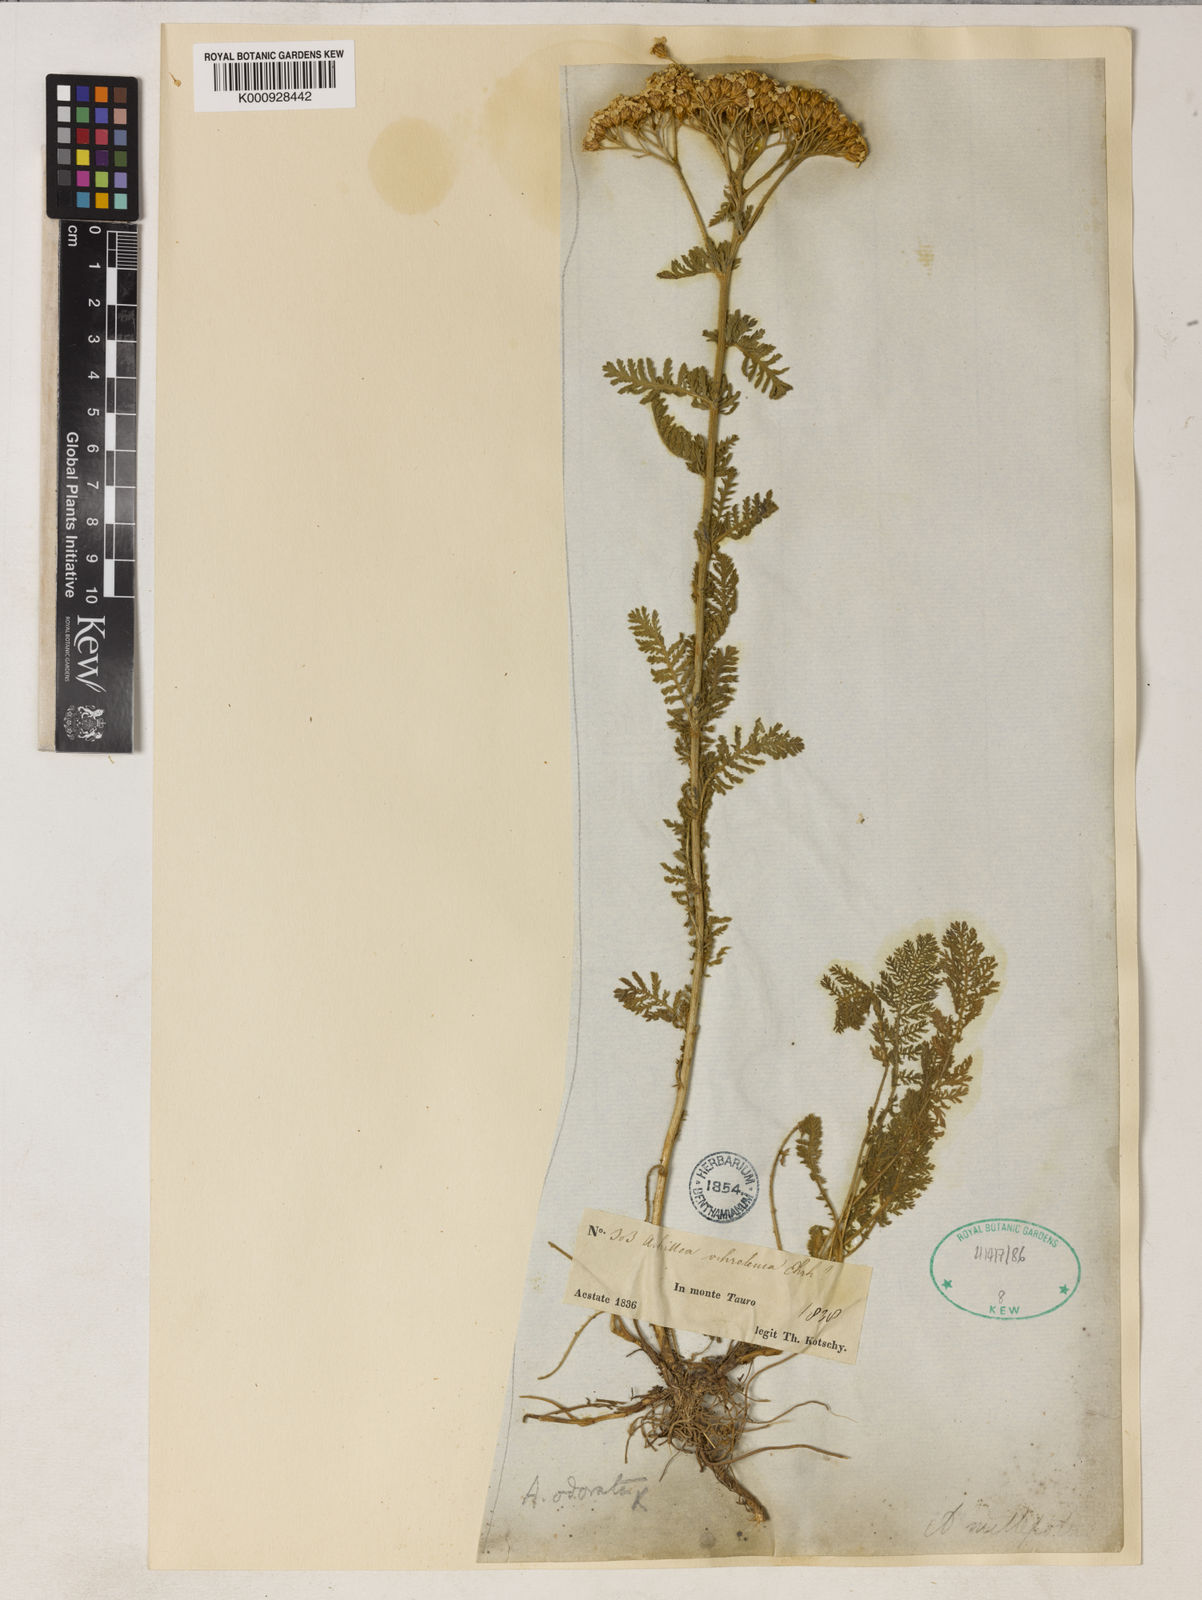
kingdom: Plantae
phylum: Tracheophyta
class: Magnoliopsida
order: Asterales
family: Asteraceae
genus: Achillea
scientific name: Achillea kotschyi
